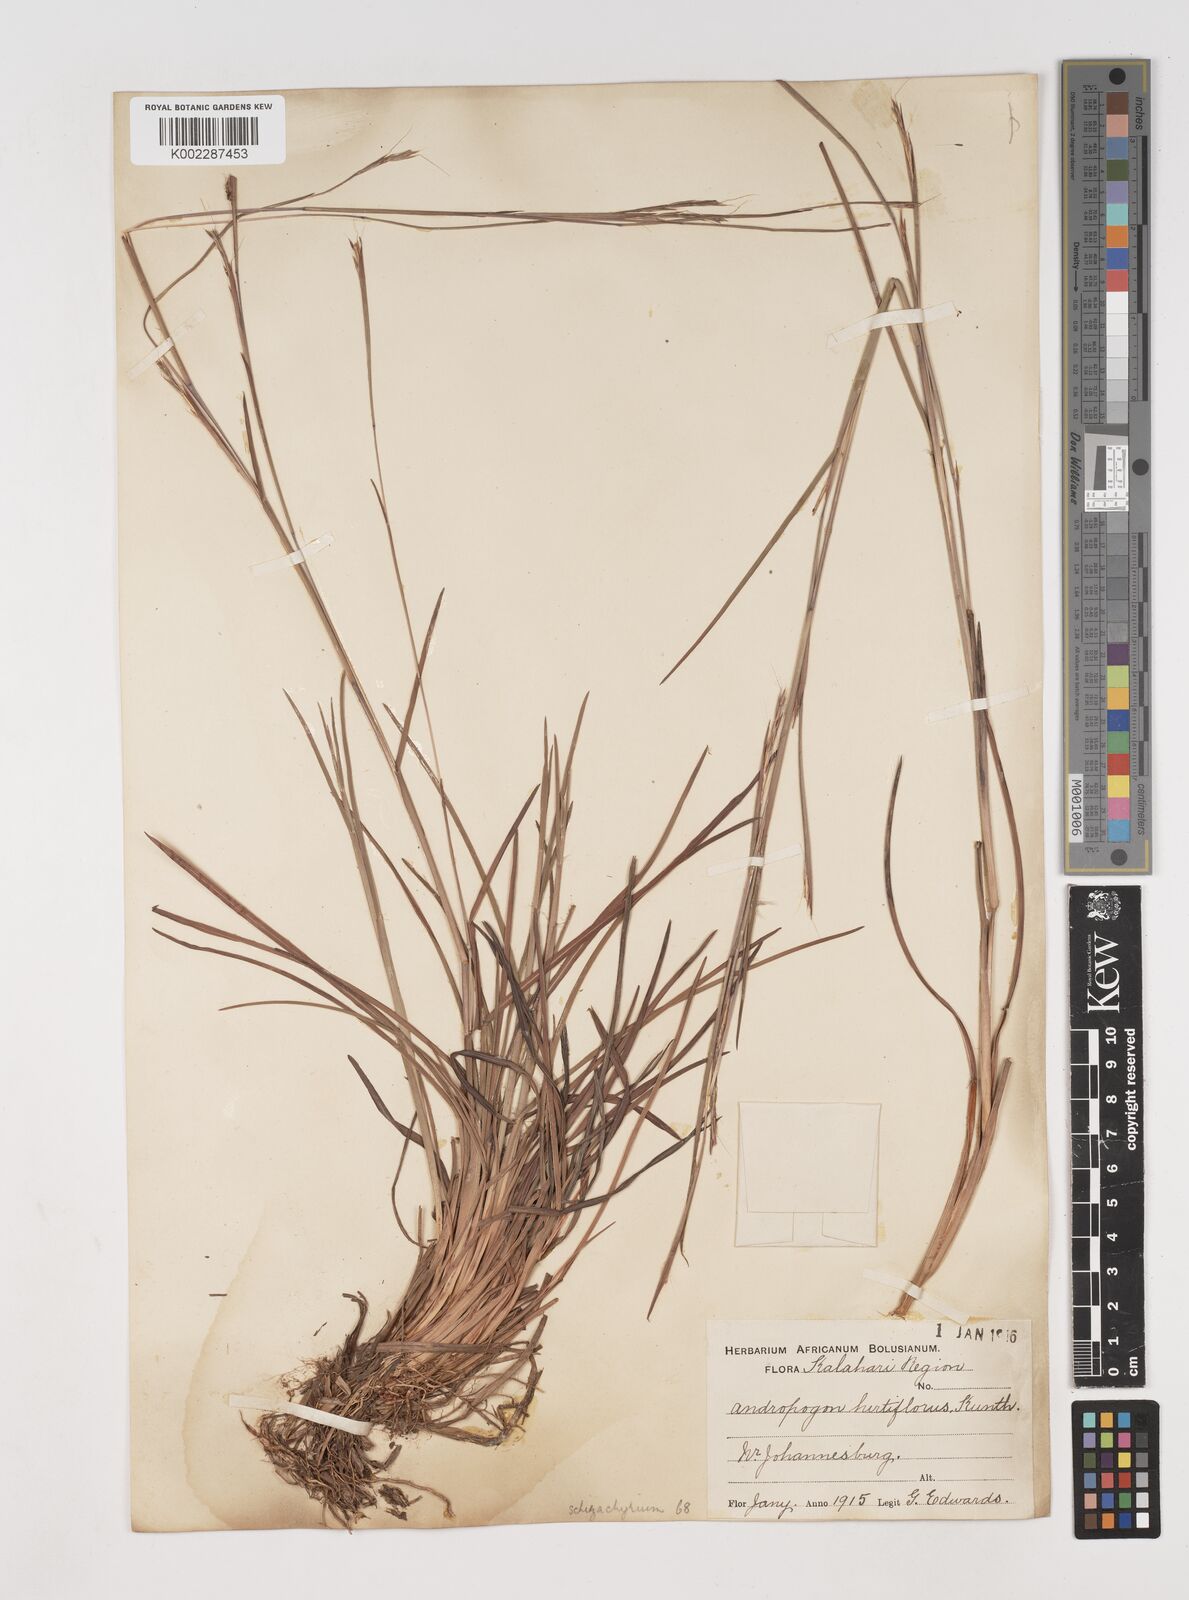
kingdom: Plantae
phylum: Tracheophyta
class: Liliopsida
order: Poales
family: Poaceae
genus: Schizachyrium
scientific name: Schizachyrium sanguineum
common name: Crimson bluestem
